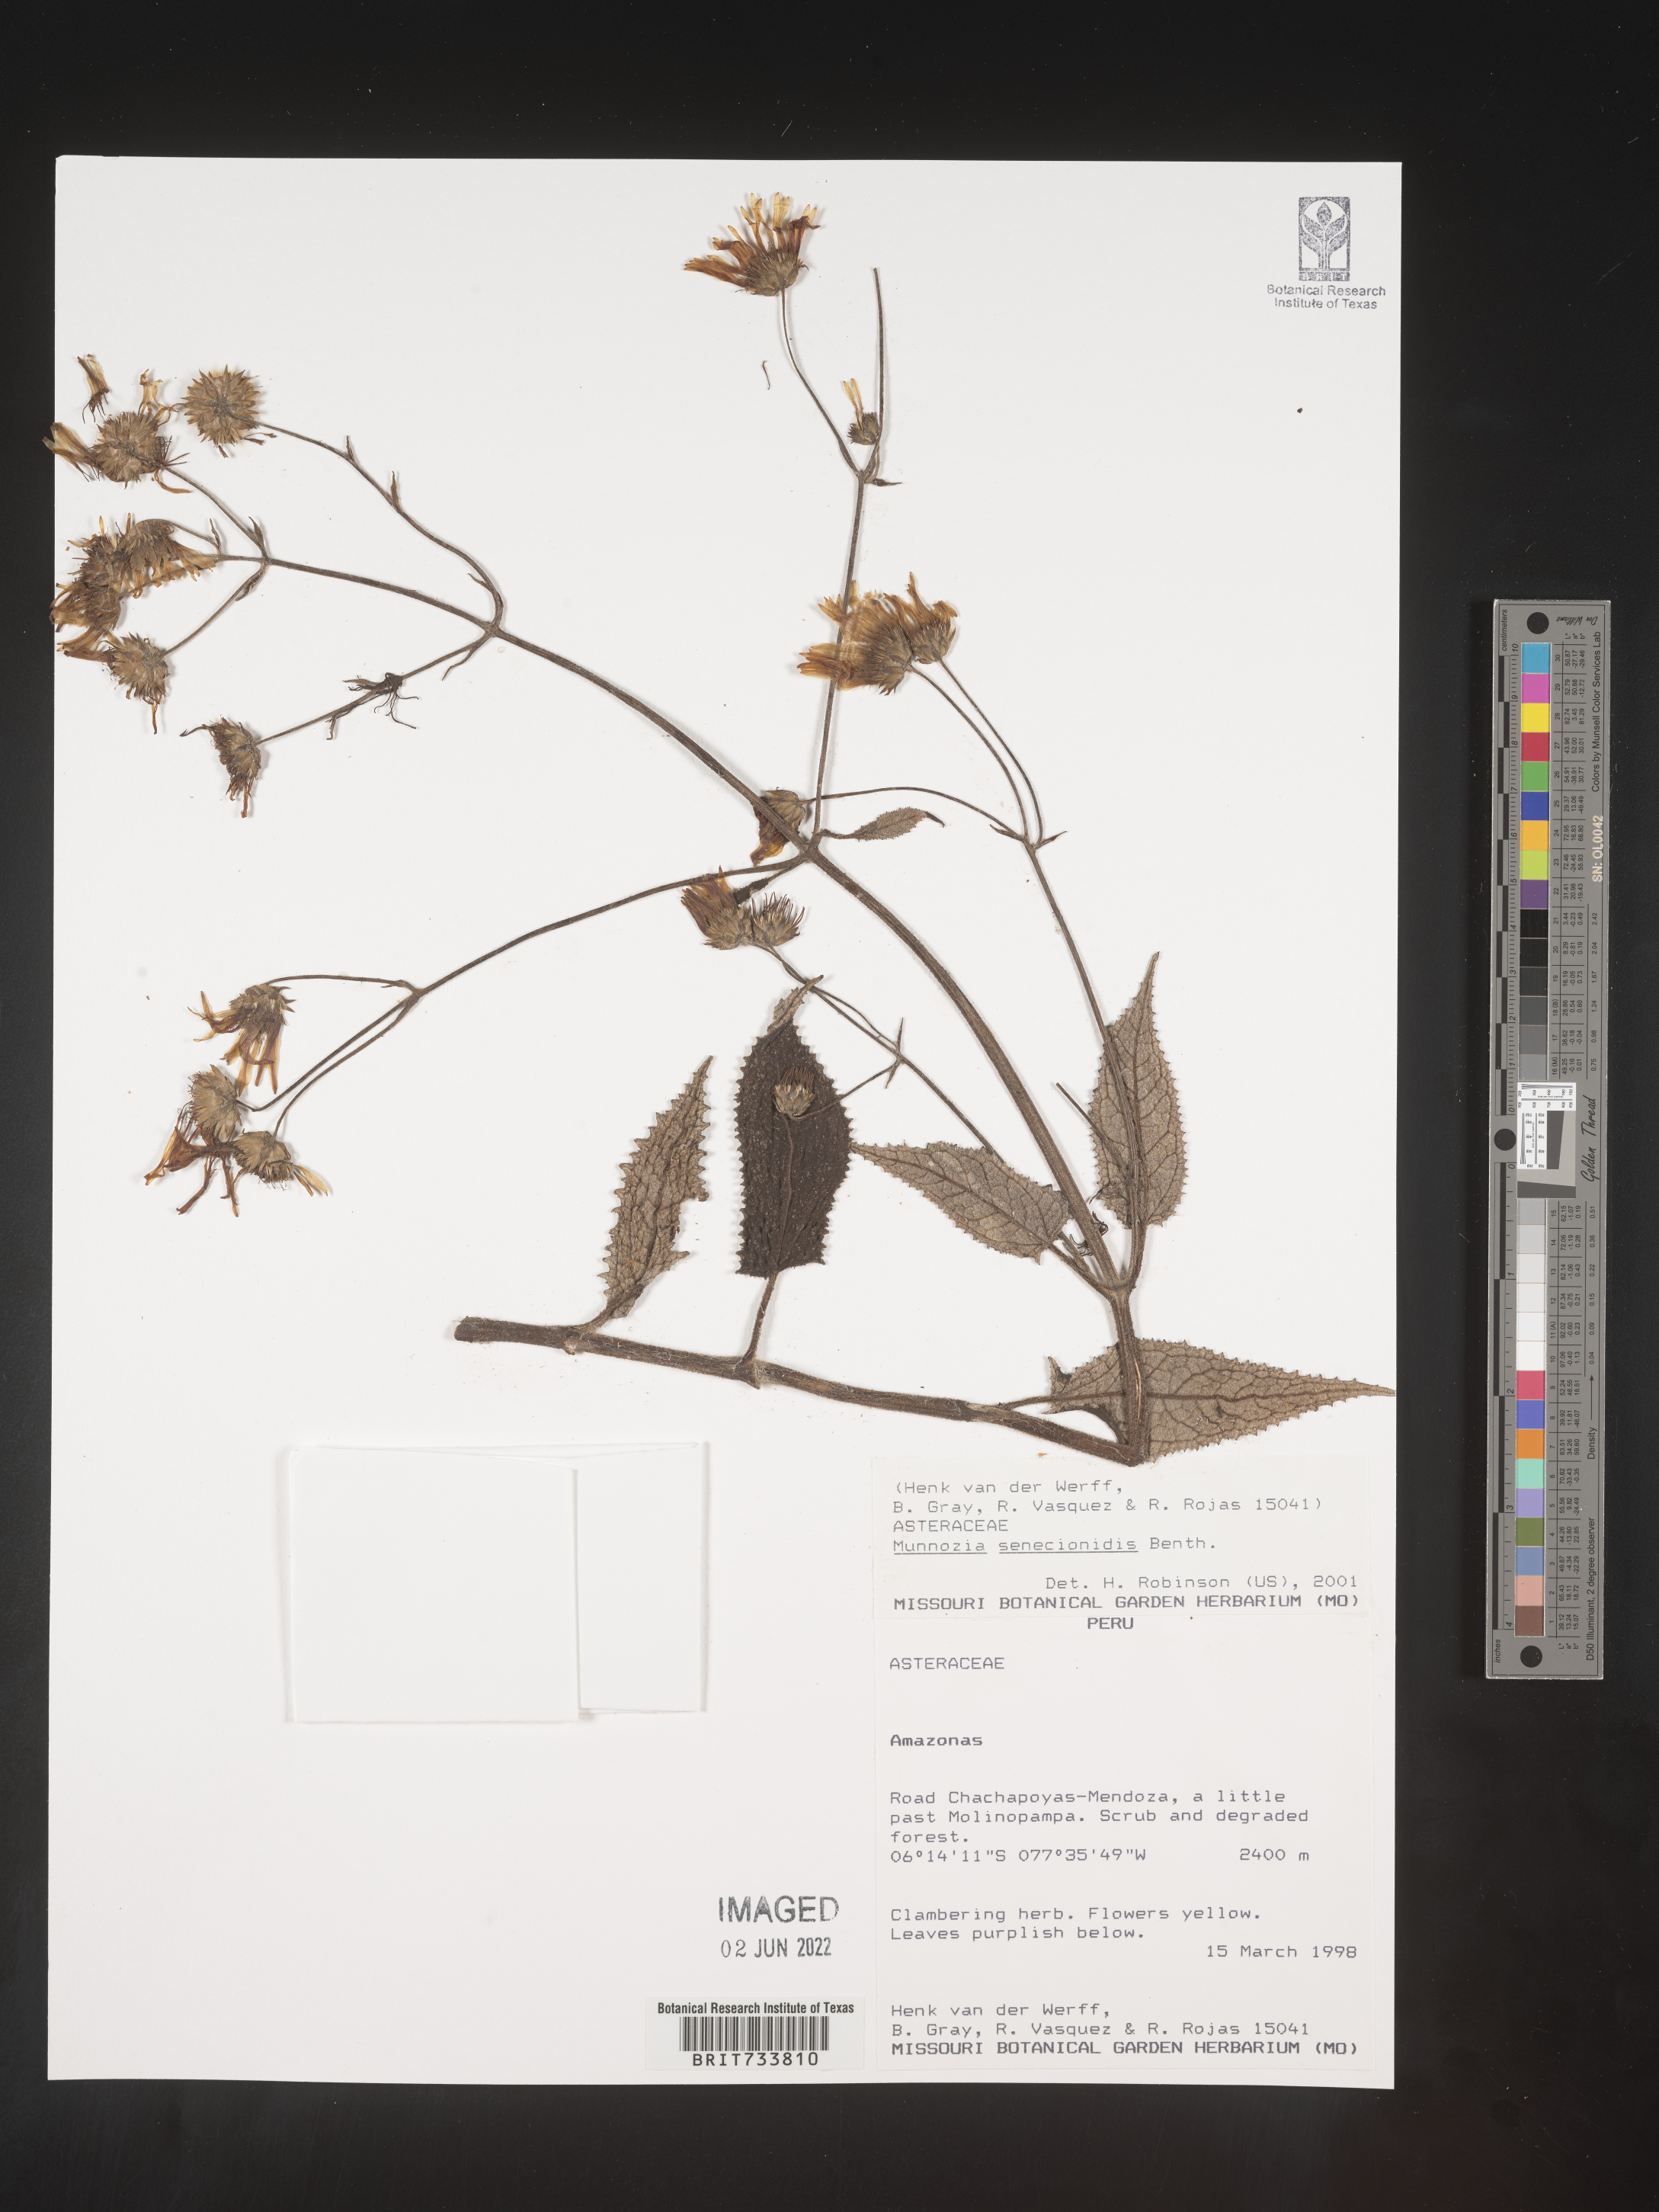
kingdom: Plantae
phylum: Tracheophyta
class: Magnoliopsida
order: Asterales
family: Asteraceae
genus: Munnozia
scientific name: Munnozia
